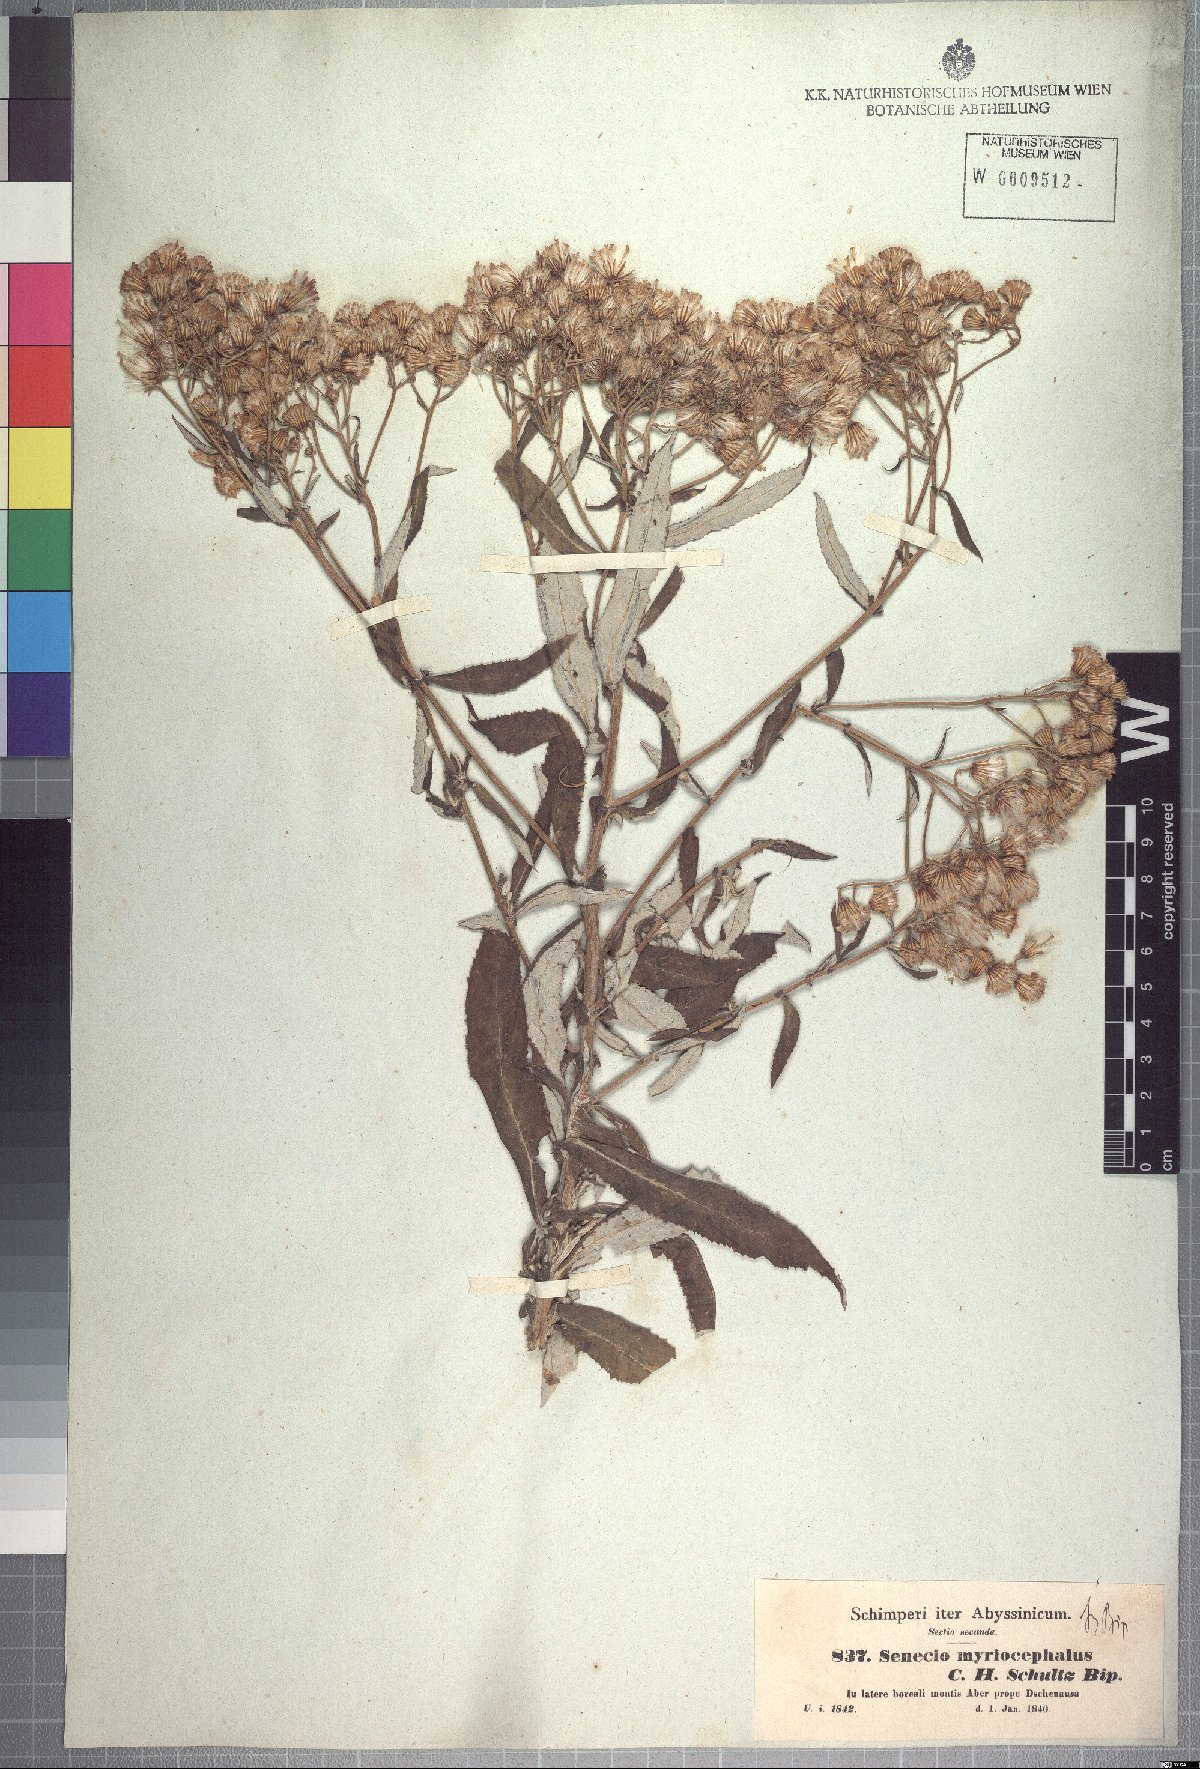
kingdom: Plantae
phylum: Tracheophyta
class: Magnoliopsida
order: Asterales
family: Asteraceae
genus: Senecio
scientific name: Senecio myriocephalus
